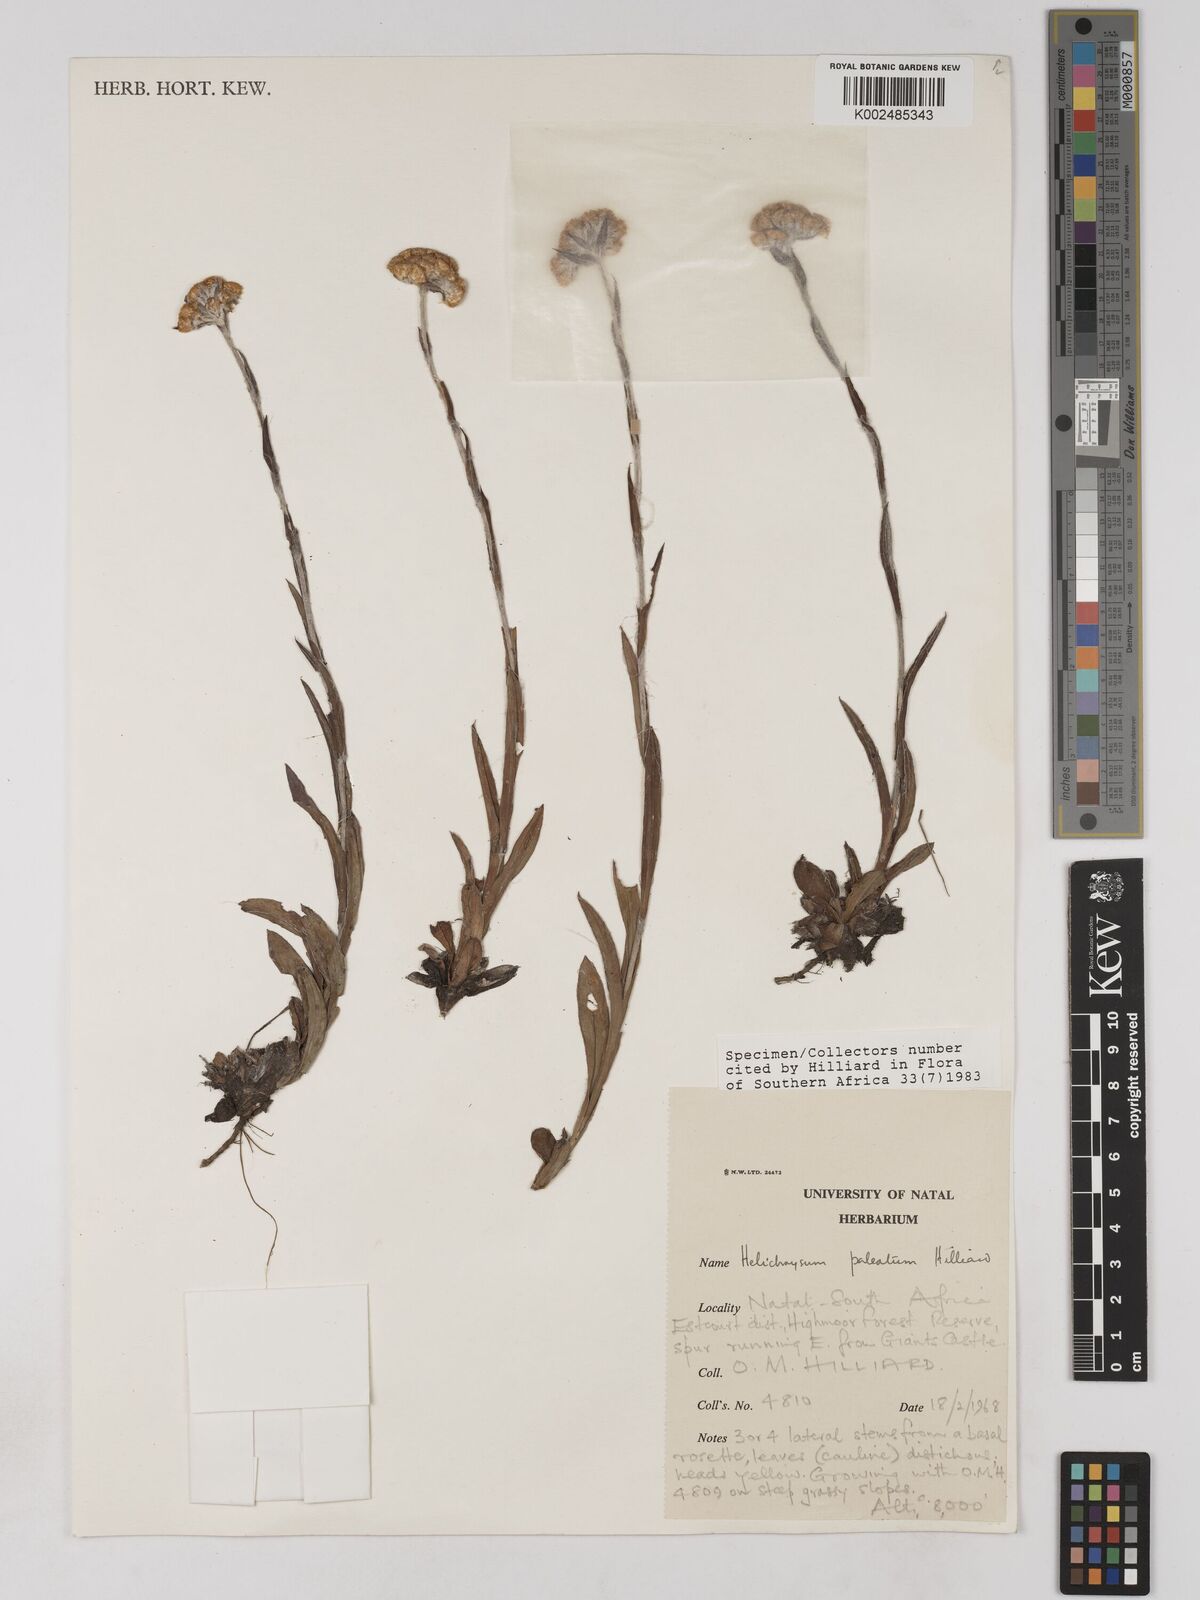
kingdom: Plantae
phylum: Tracheophyta
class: Magnoliopsida
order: Asterales
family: Asteraceae
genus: Helichrysum
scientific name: Helichrysum paleatum
